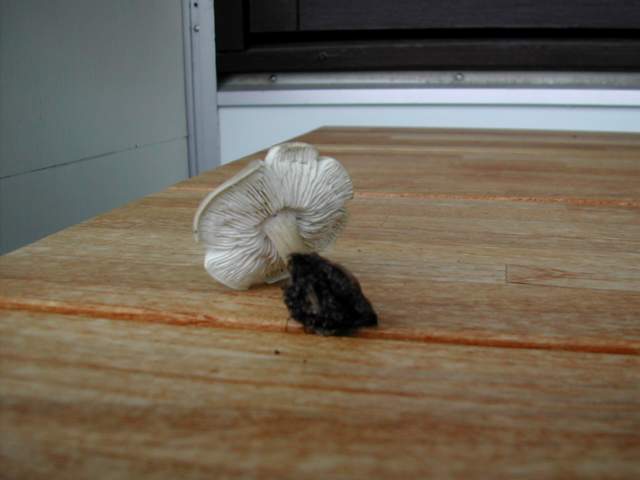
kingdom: Fungi
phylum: Basidiomycota
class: Agaricomycetes
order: Agaricales
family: Tricholomataceae
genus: Melanoleuca
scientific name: Melanoleuca polioleuca
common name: hvidbladet munkehat
